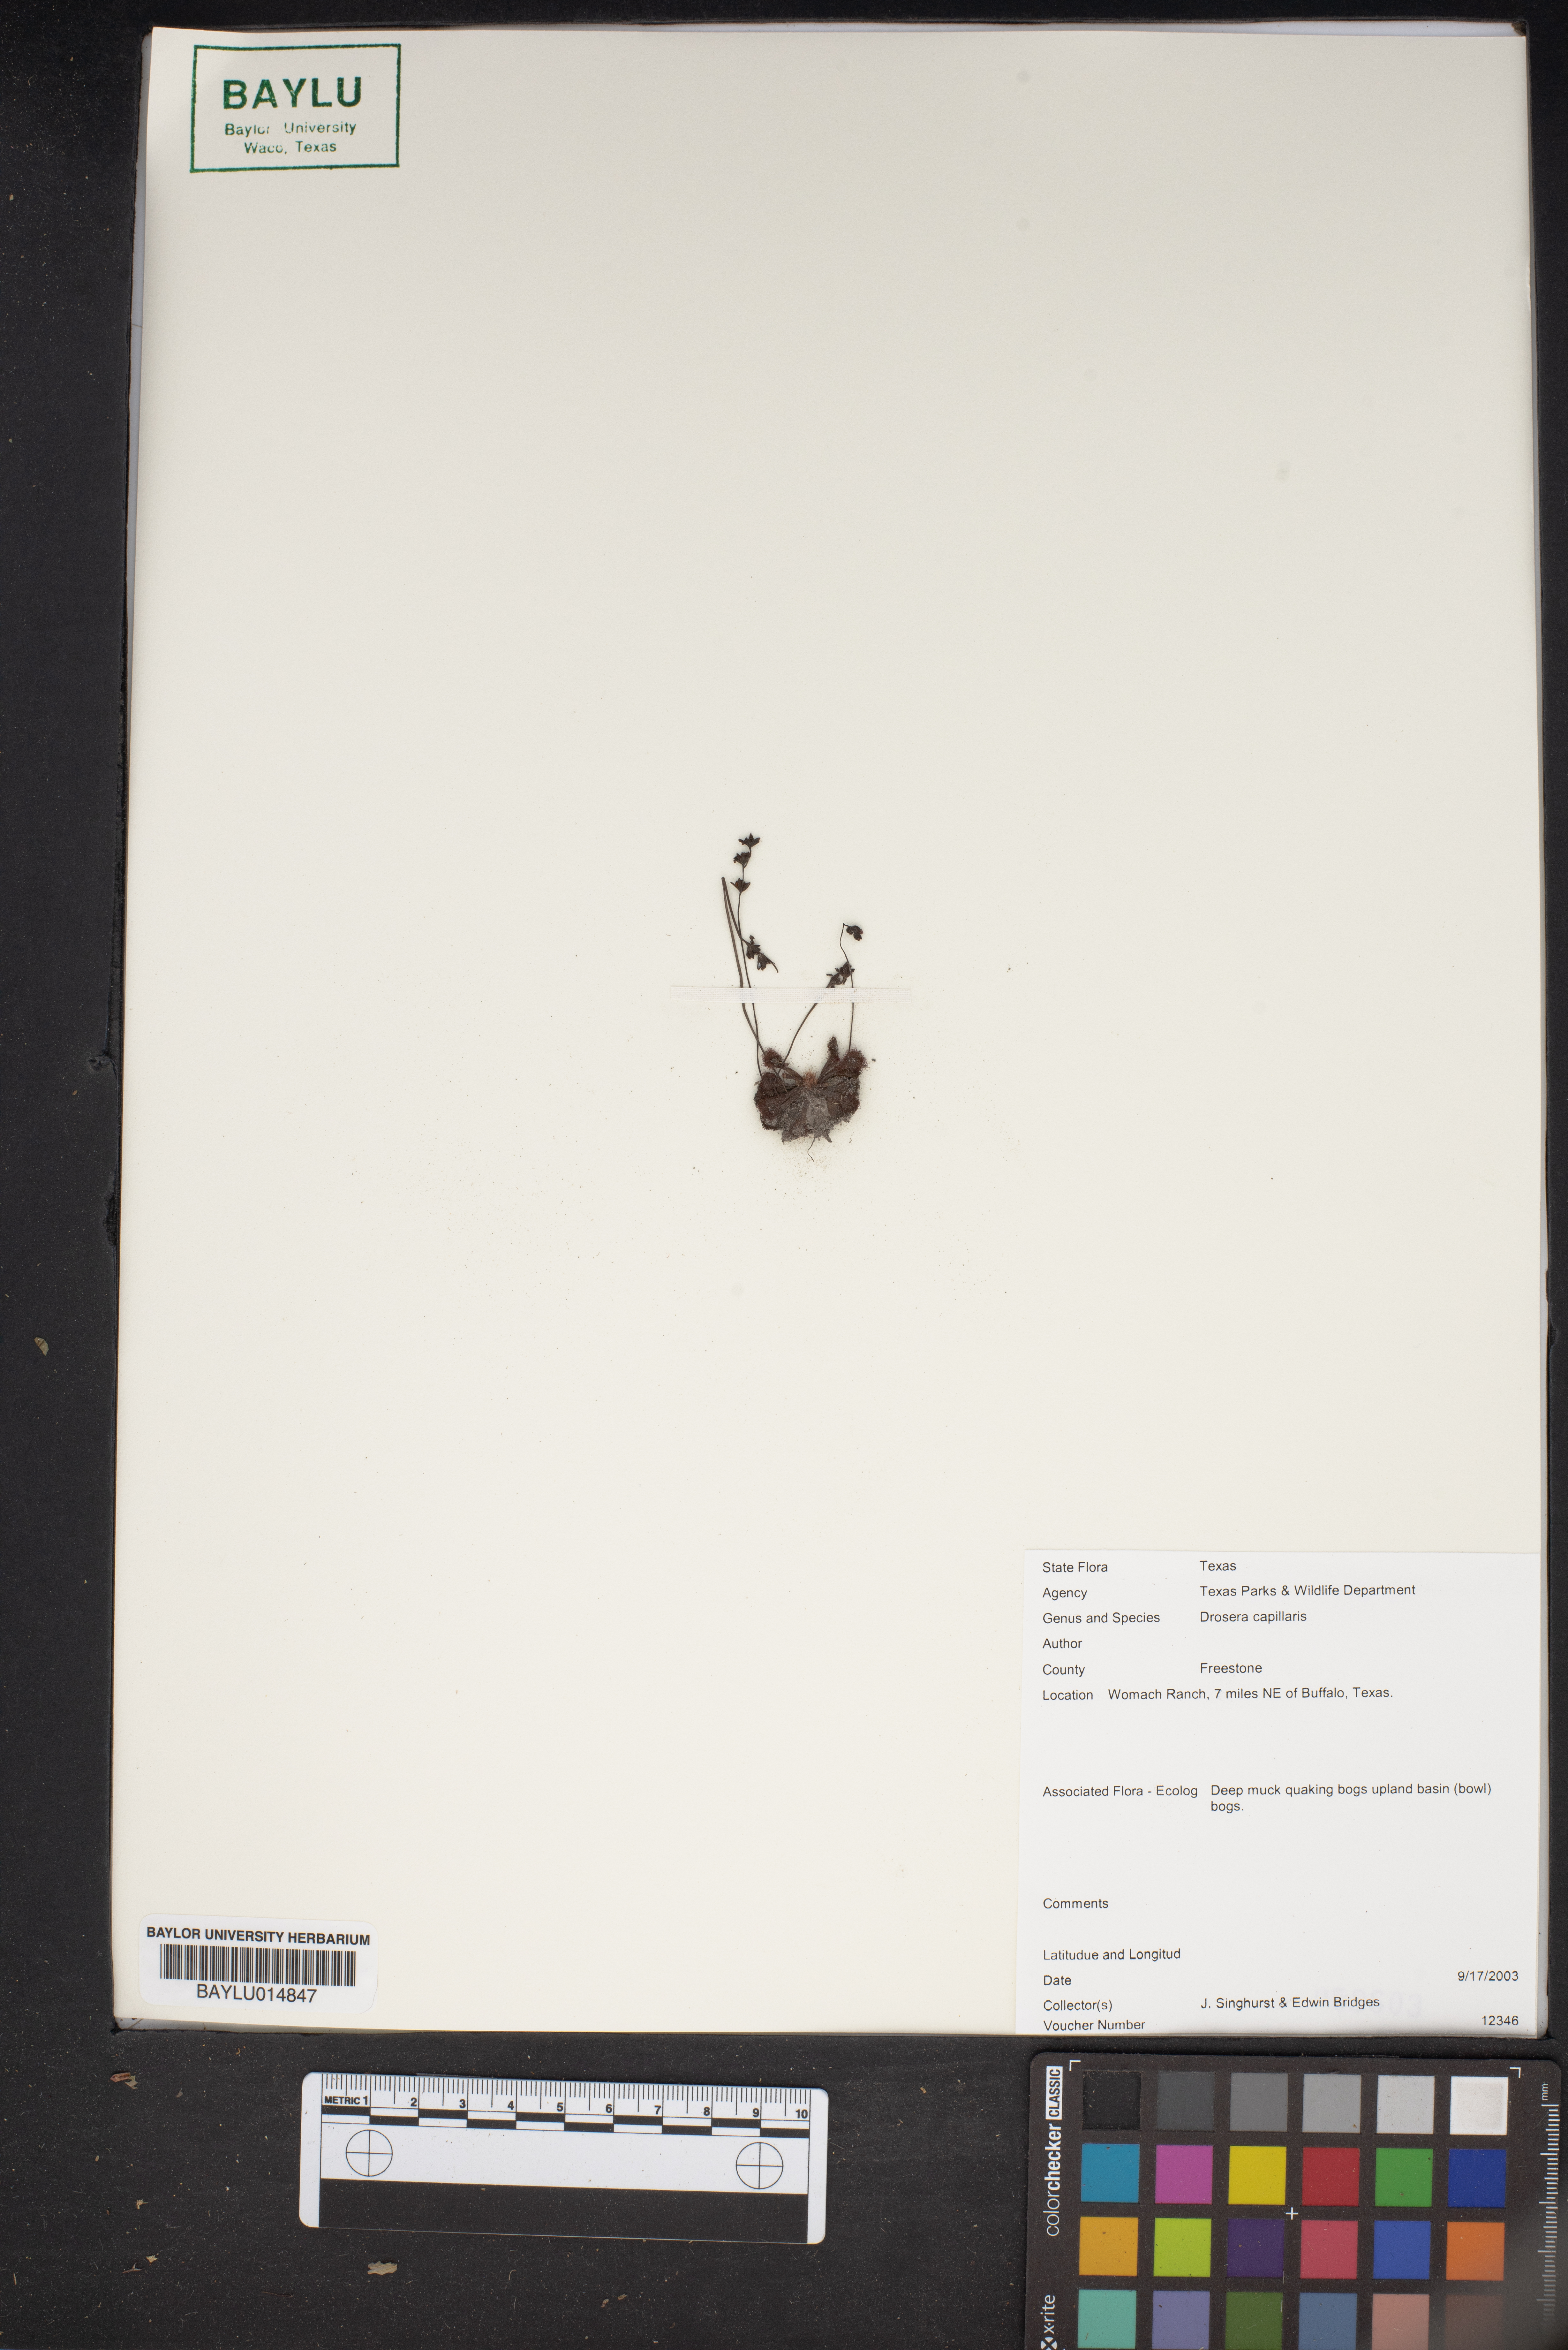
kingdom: Plantae
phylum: Tracheophyta
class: Magnoliopsida
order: Caryophyllales
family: Droseraceae
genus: Drosera
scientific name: Drosera capillaris
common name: Pink sundew
